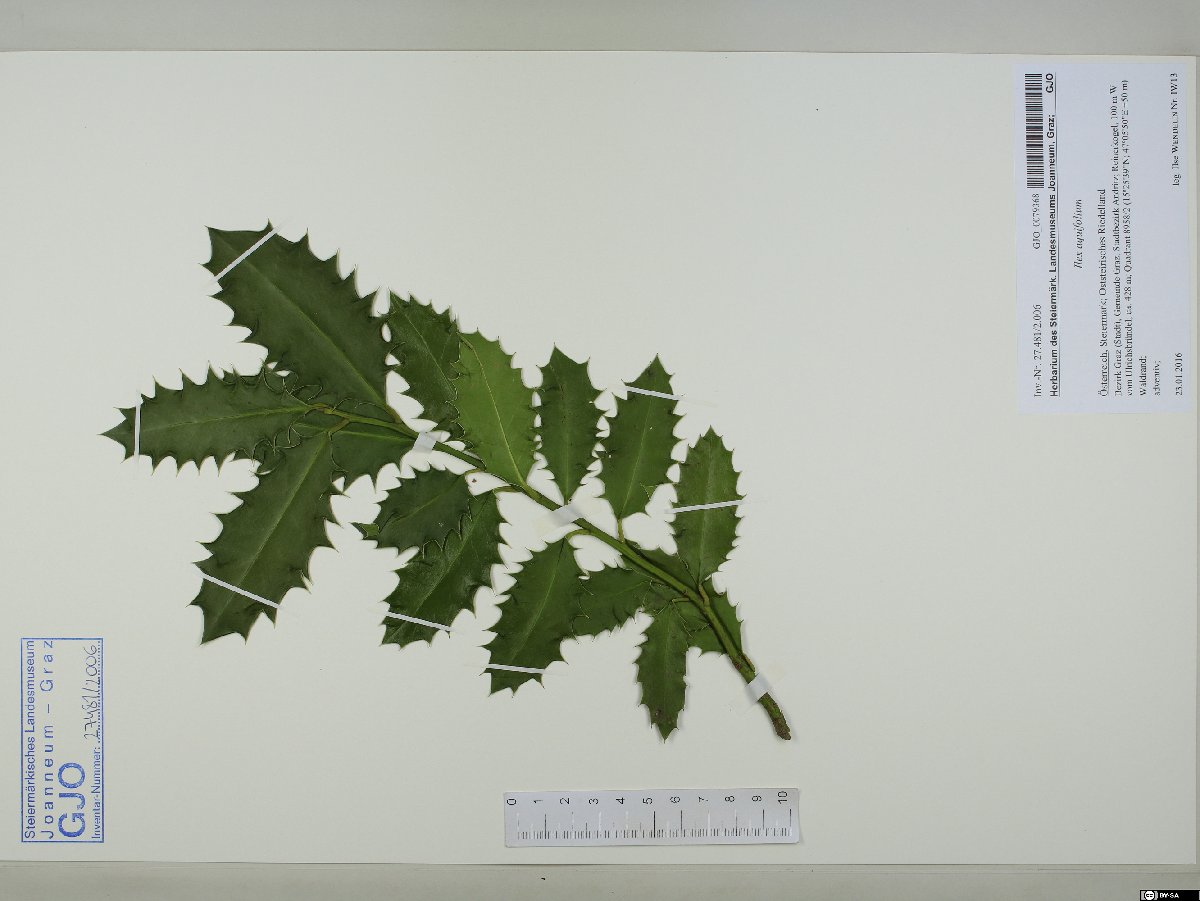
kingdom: Plantae
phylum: Tracheophyta
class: Magnoliopsida
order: Aquifoliales
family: Aquifoliaceae
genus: Ilex
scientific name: Ilex aquifolium
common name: English holly
